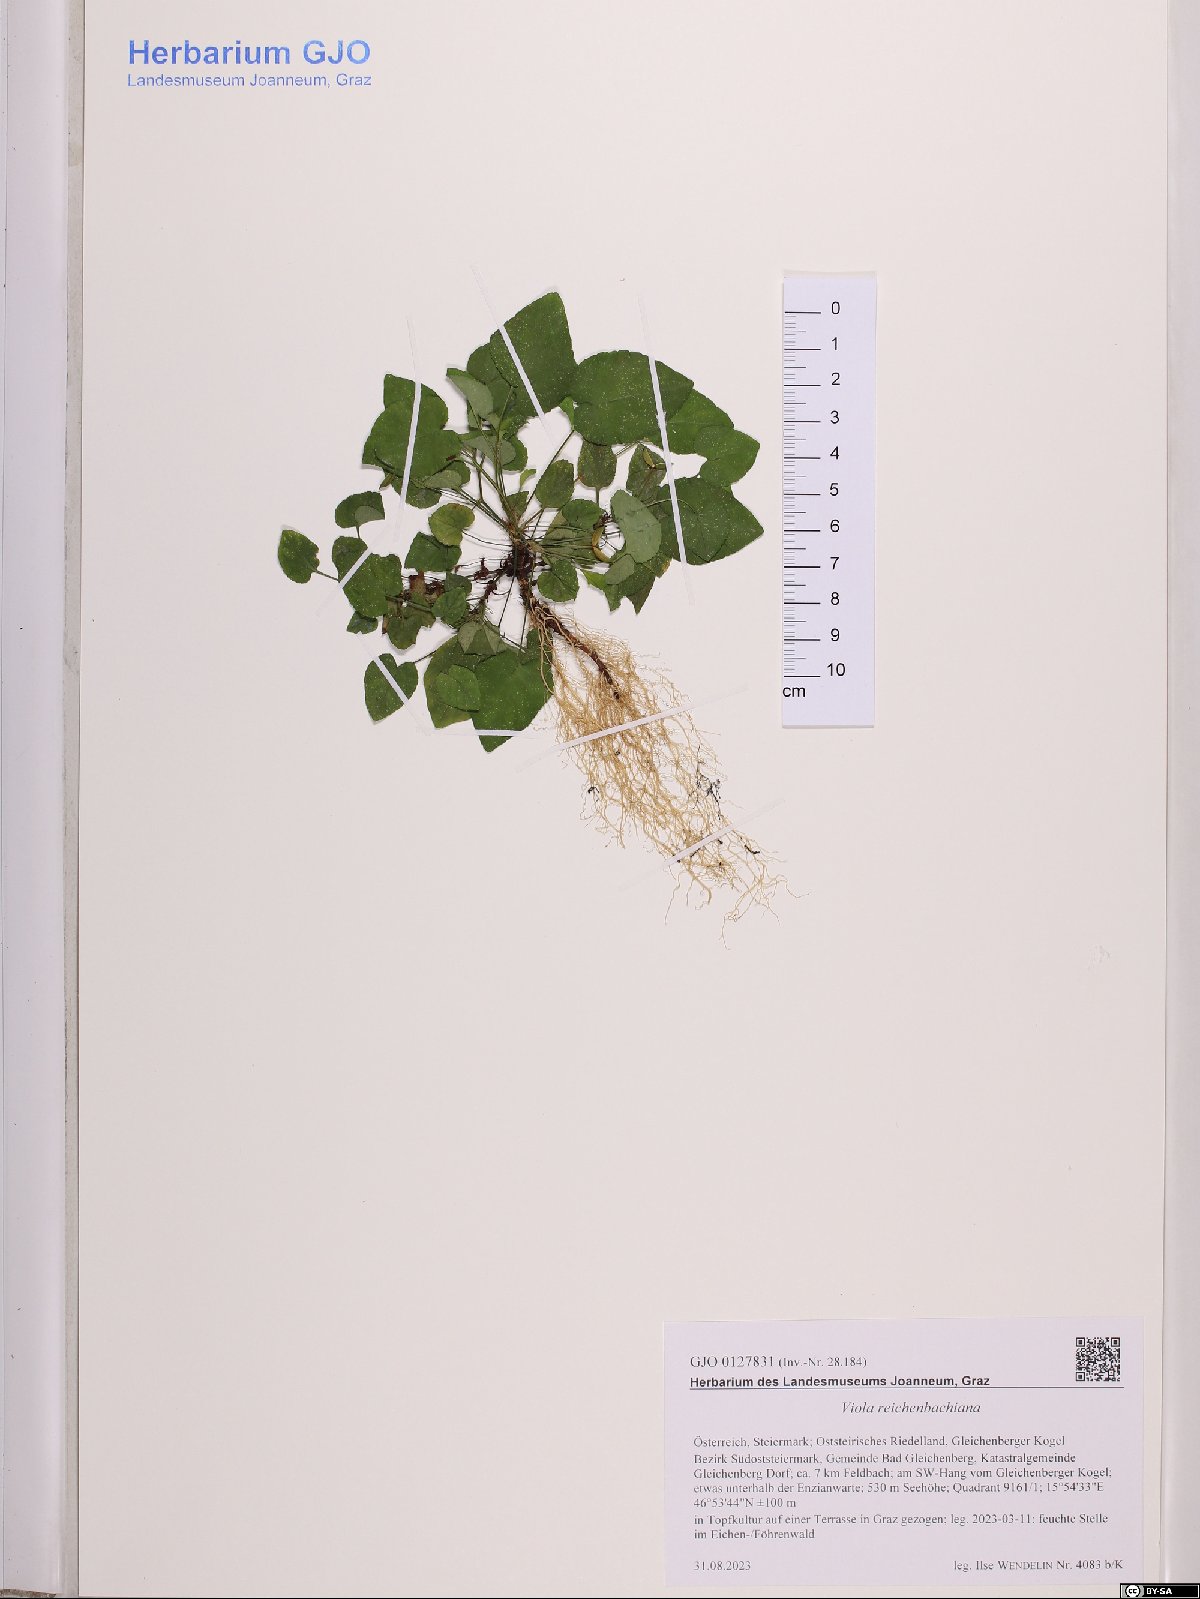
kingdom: Plantae
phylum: Tracheophyta
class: Magnoliopsida
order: Malpighiales
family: Violaceae
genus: Viola
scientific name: Viola reichenbachiana
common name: Early dog-violet
